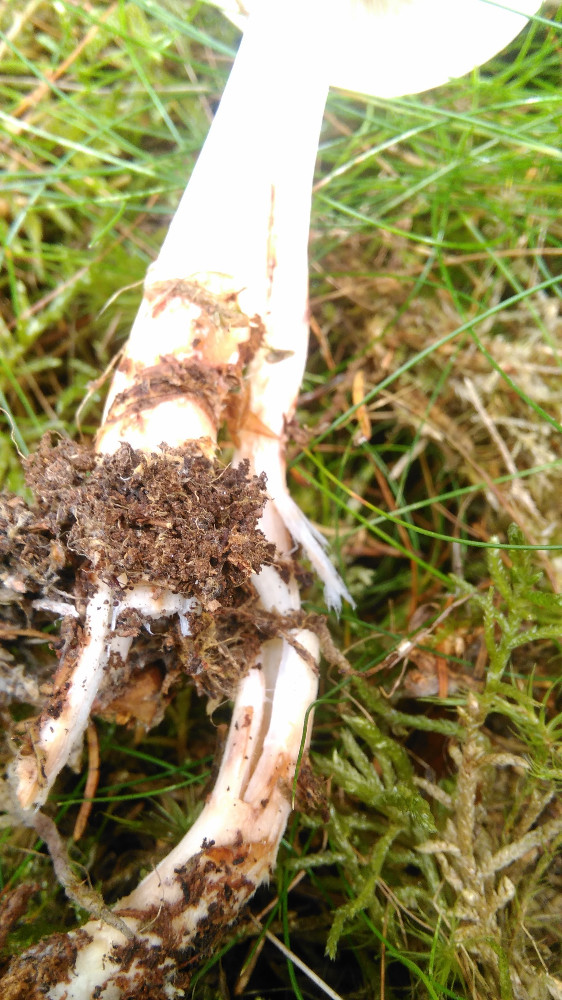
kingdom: Fungi
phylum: Basidiomycota
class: Agaricomycetes
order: Agaricales
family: Omphalotaceae
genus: Rhodocollybia
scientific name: Rhodocollybia maculata
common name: plettet fladhat
